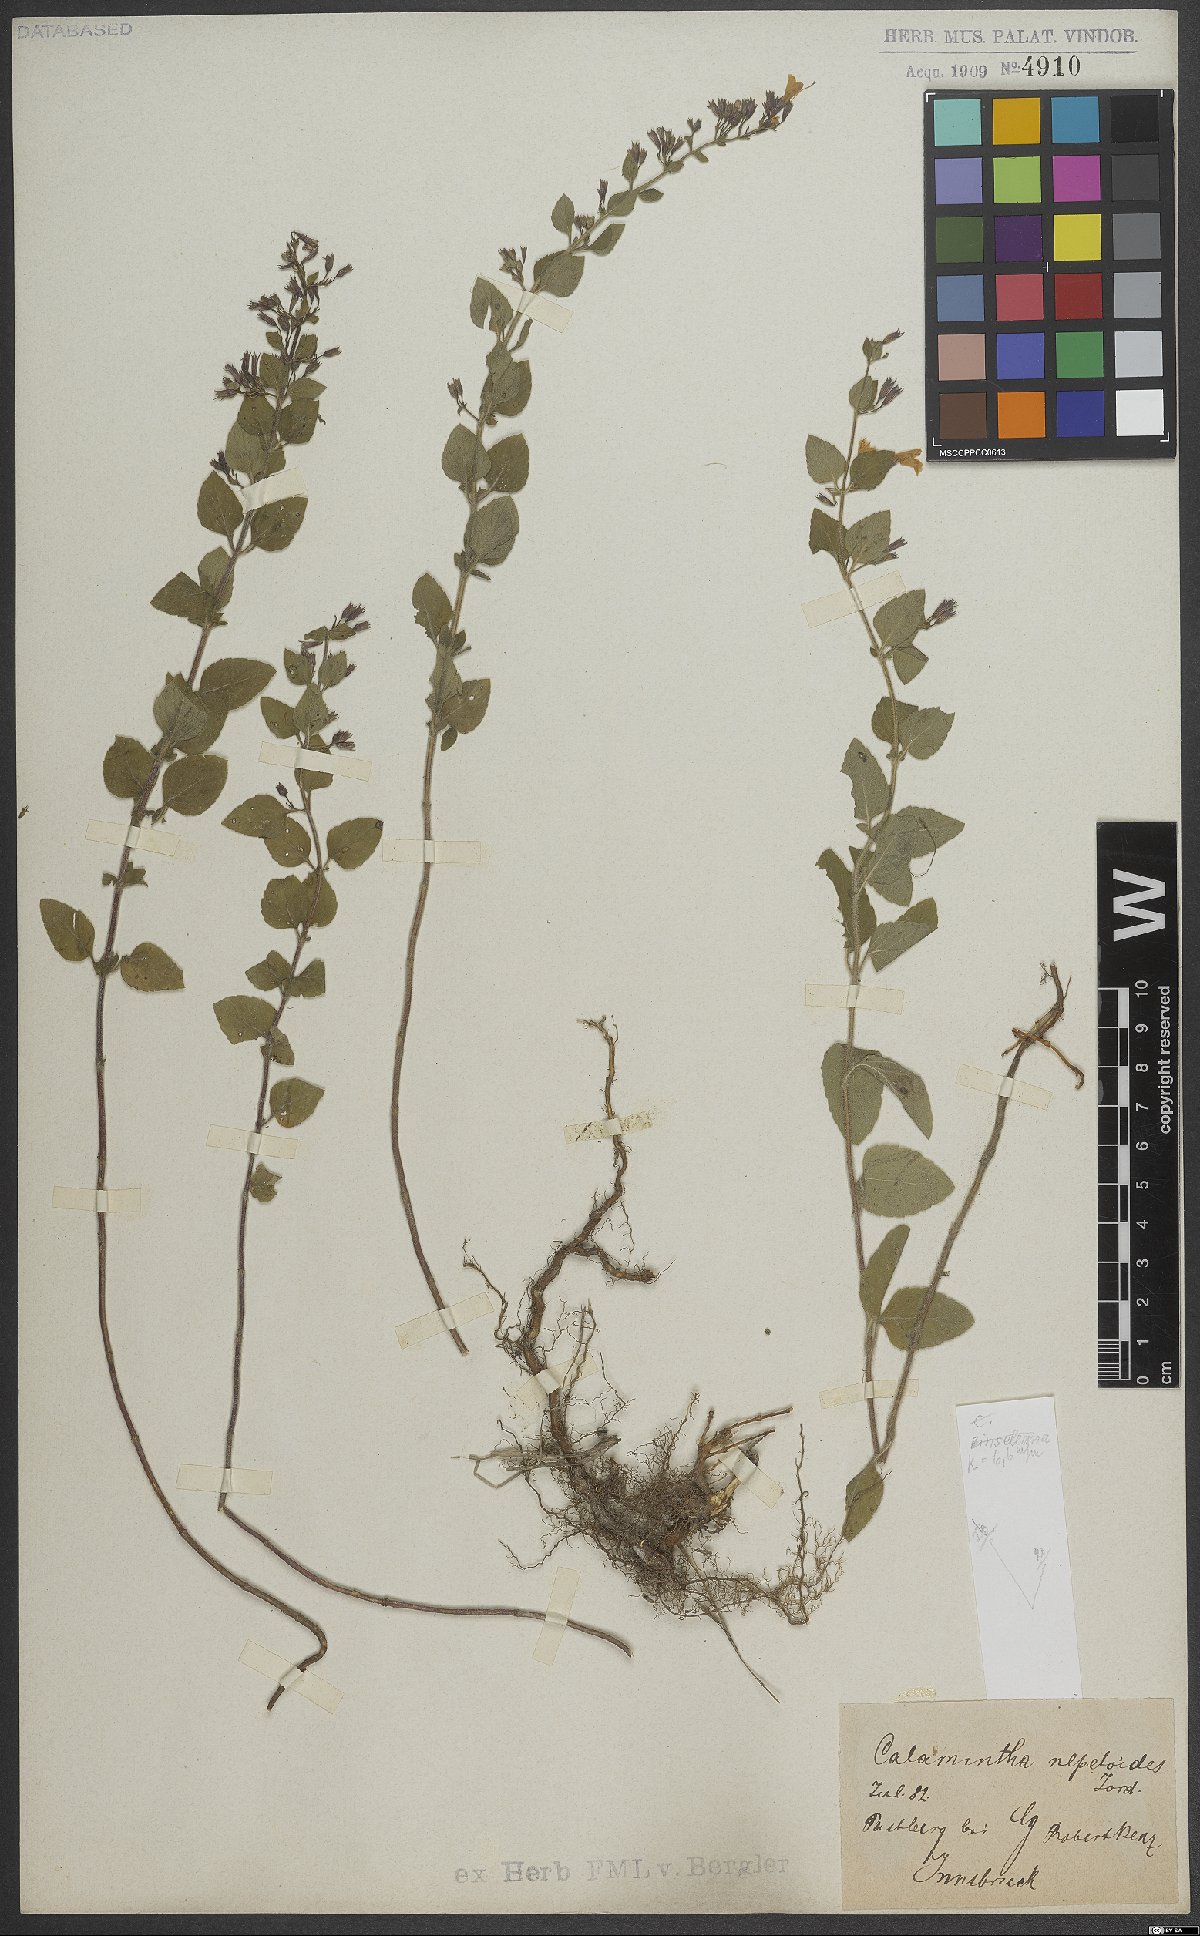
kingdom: Plantae
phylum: Tracheophyta
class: Magnoliopsida
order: Lamiales
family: Lamiaceae
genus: Clinopodium
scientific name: Clinopodium nepeta
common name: Lesser calamint
